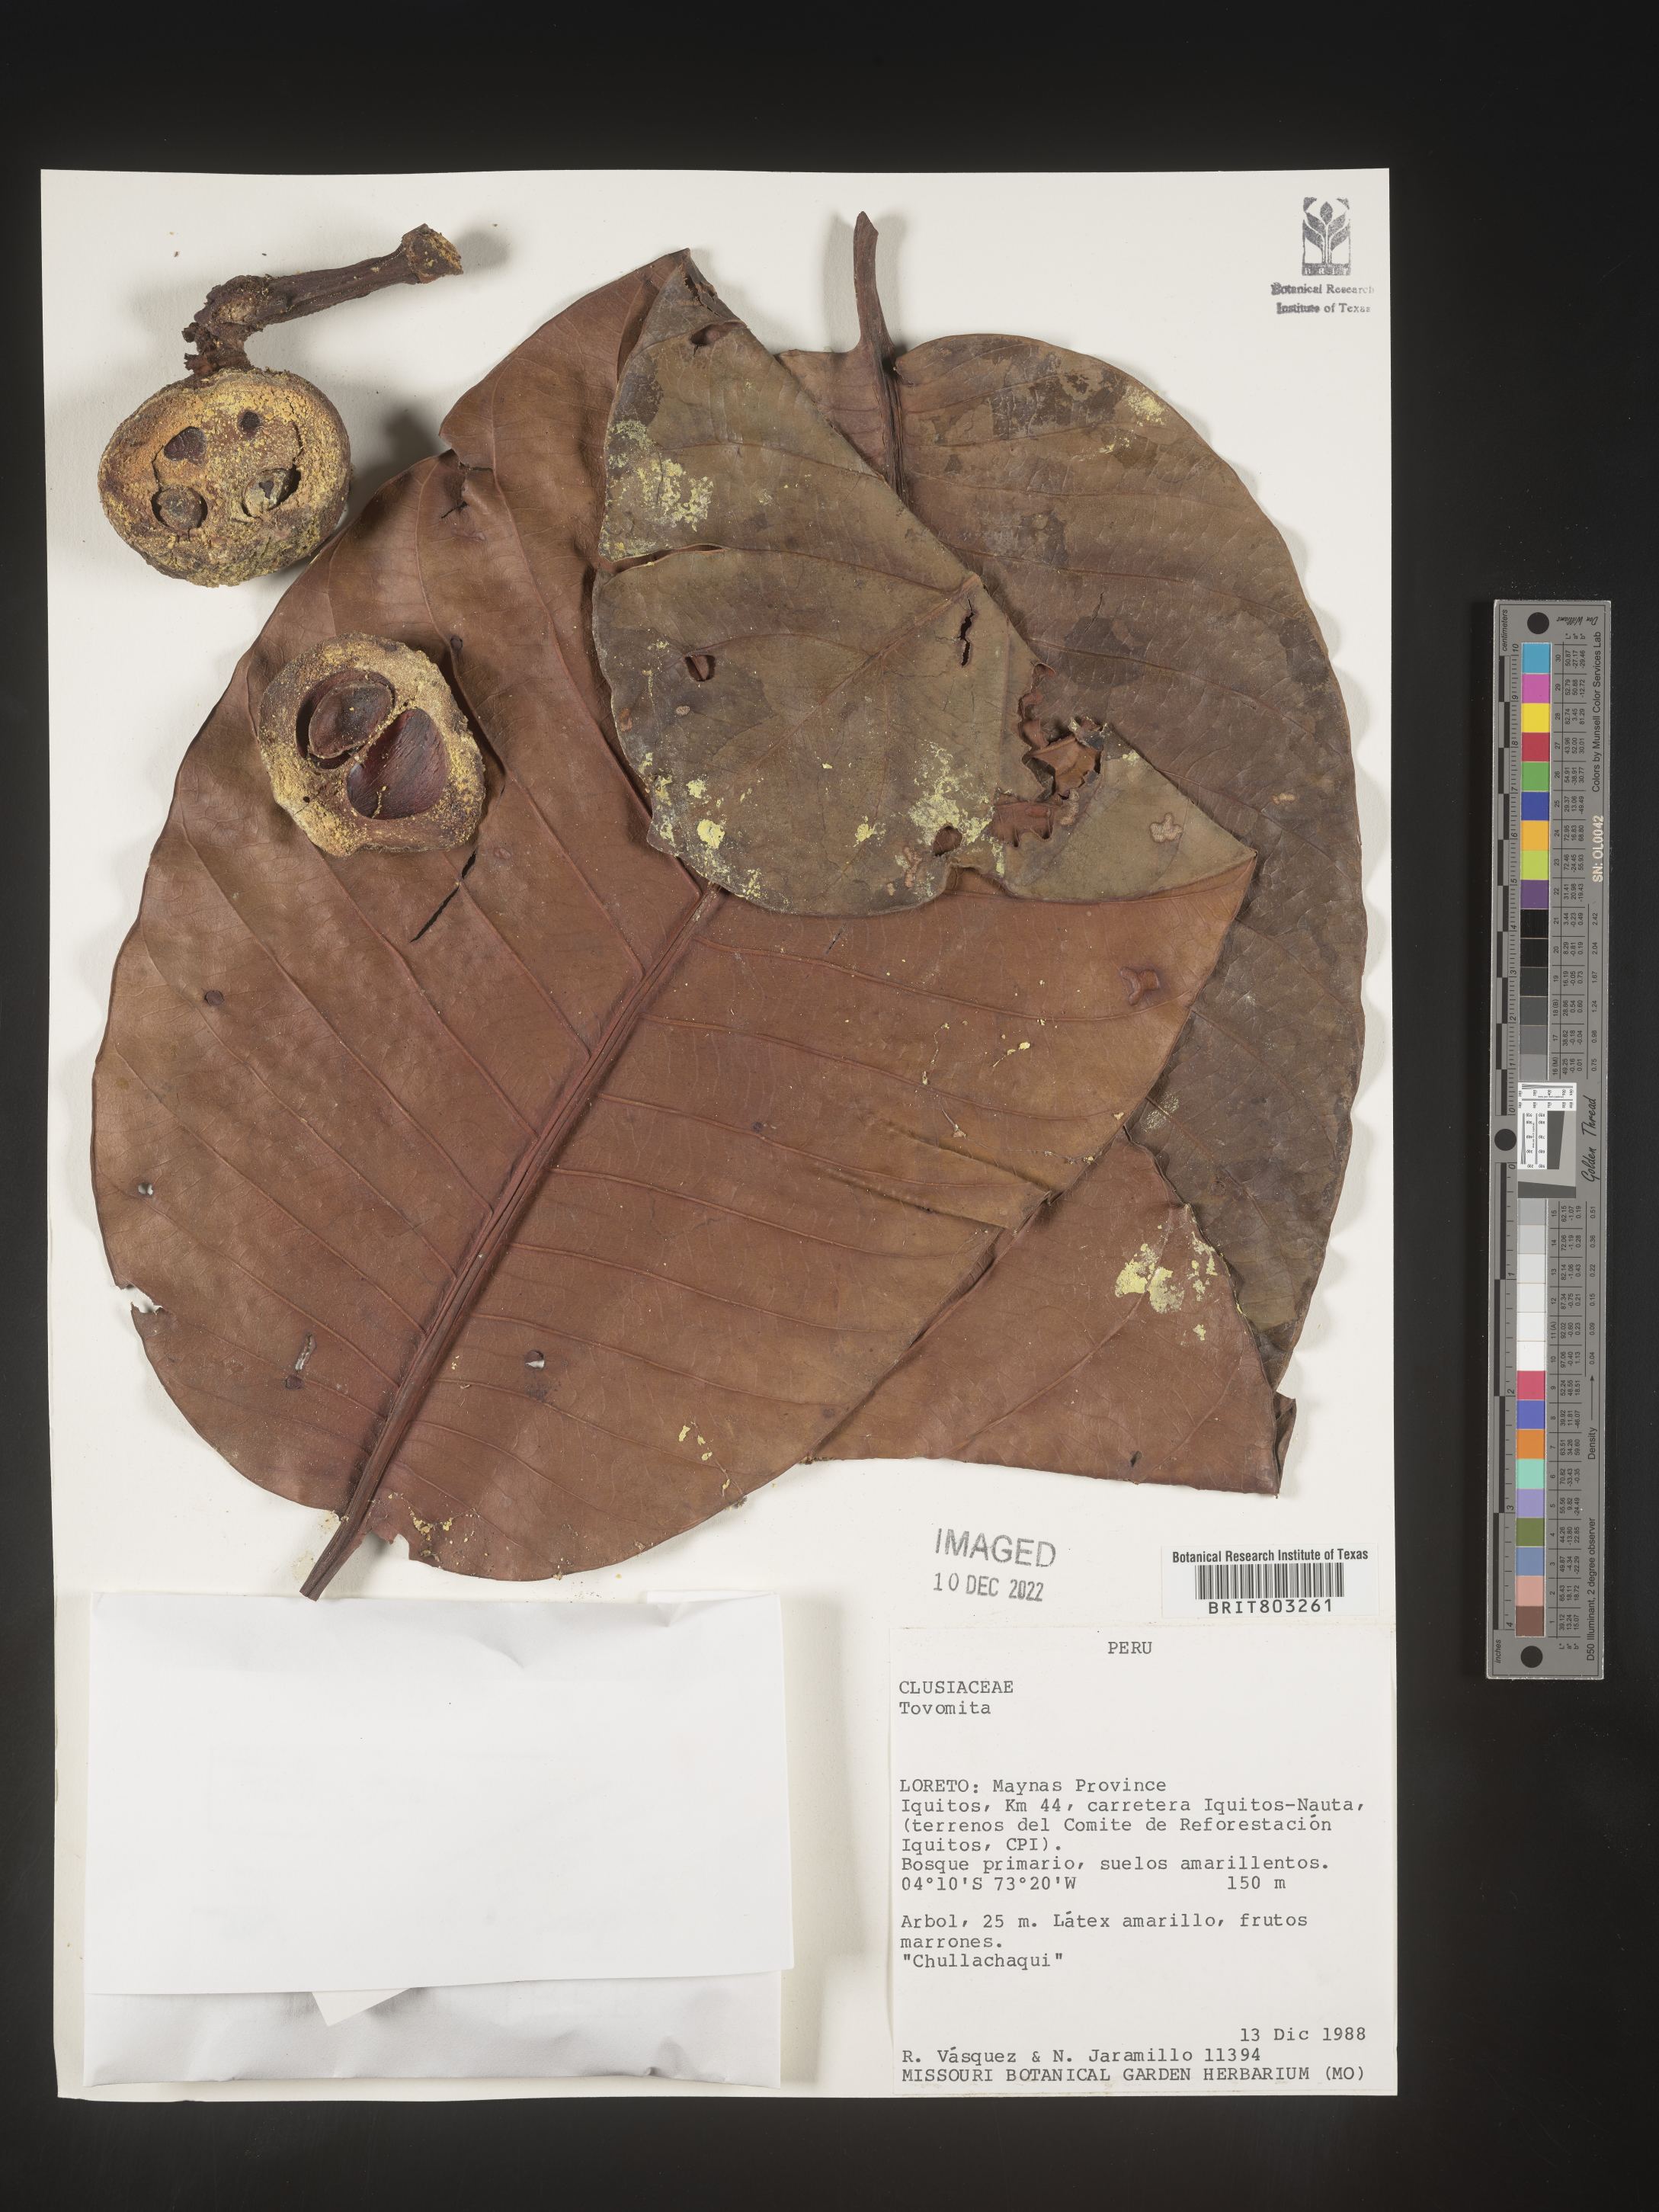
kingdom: Plantae
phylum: Tracheophyta
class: Magnoliopsida
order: Malpighiales
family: Clusiaceae
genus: Tovomita
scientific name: Tovomita
